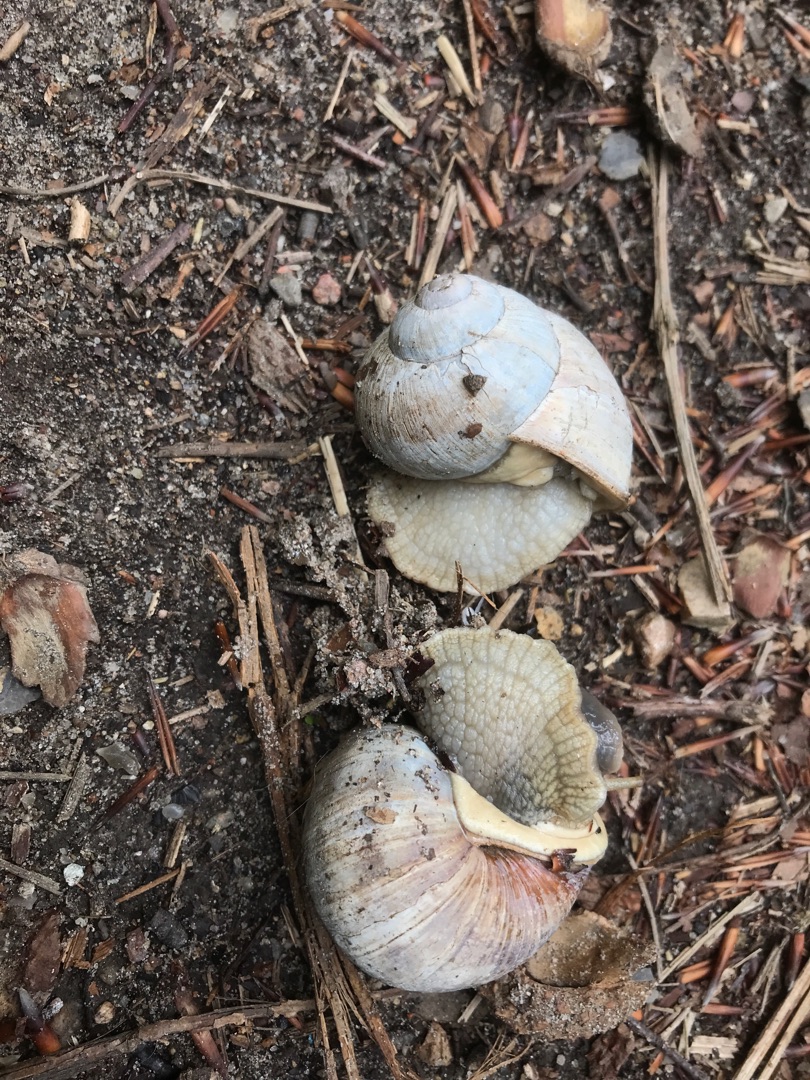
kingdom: Animalia
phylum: Mollusca
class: Gastropoda
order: Stylommatophora
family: Helicidae
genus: Helix
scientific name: Helix pomatia
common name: Vinbjergsnegl
